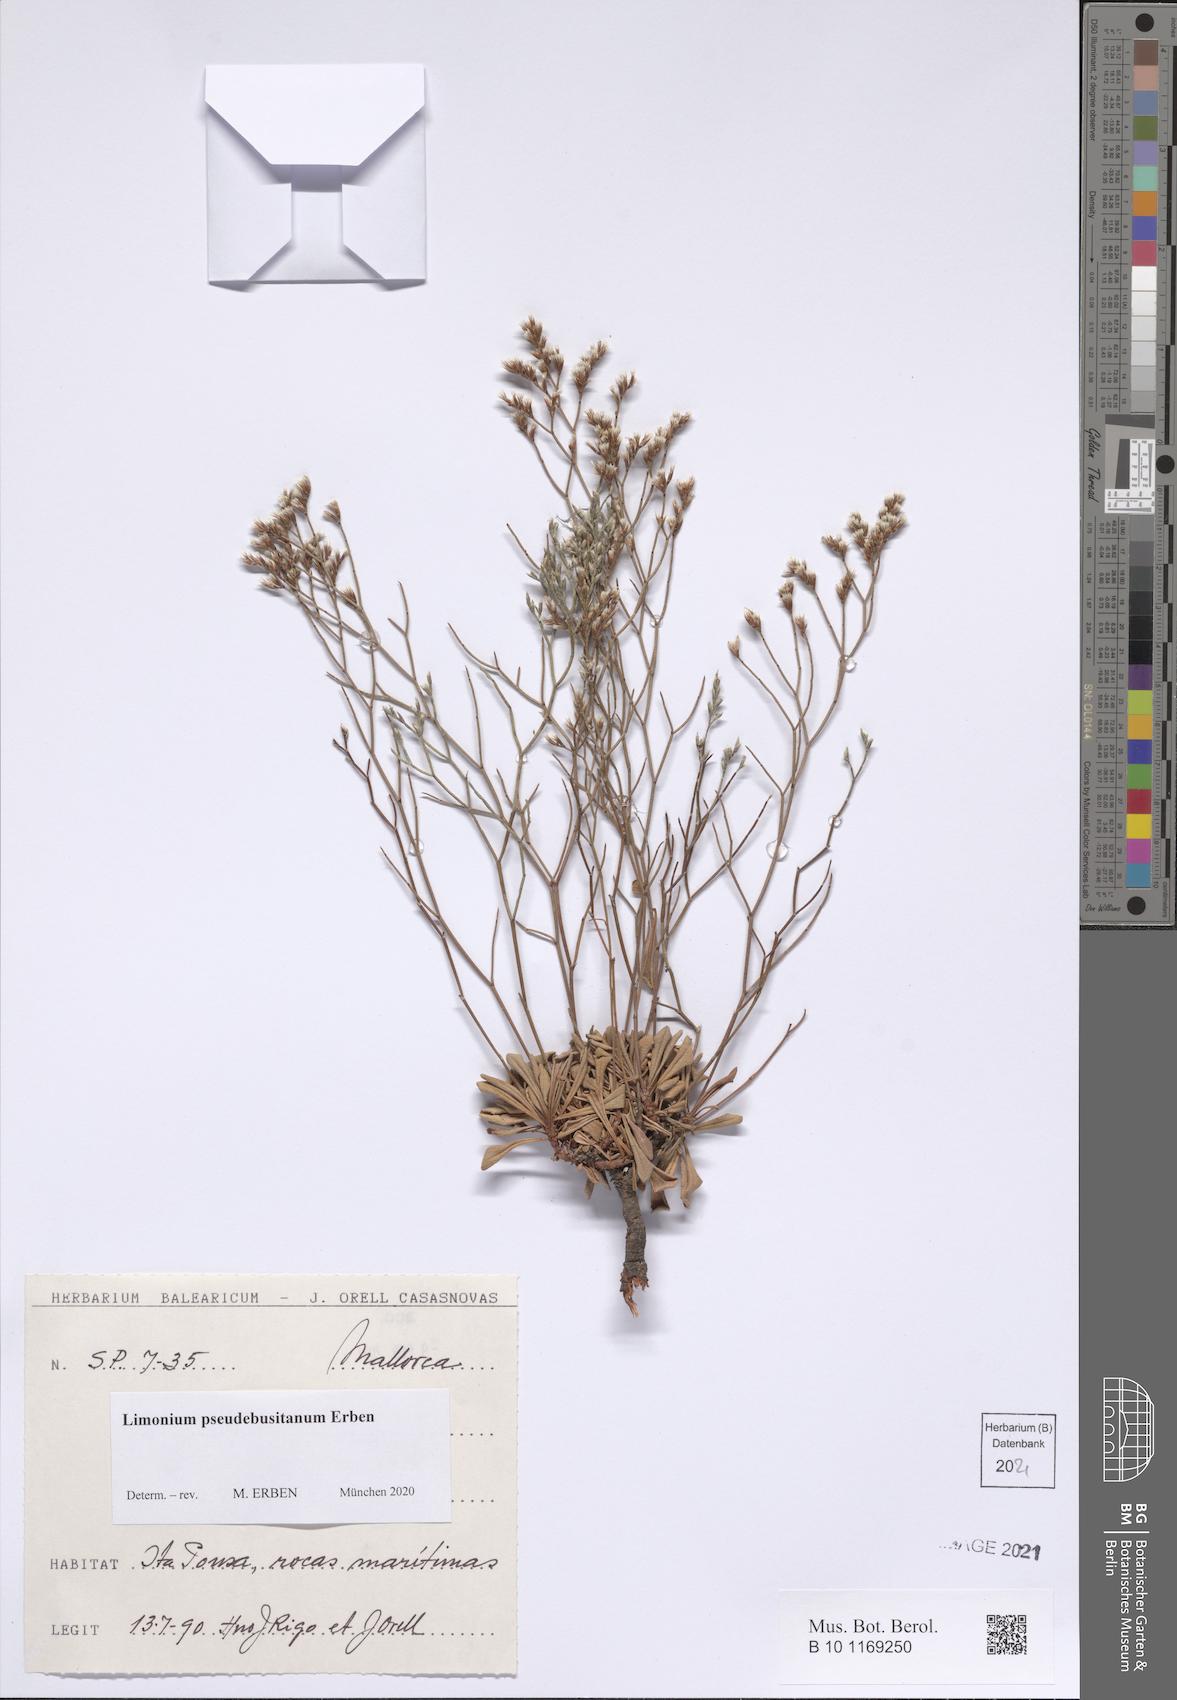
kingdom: Plantae
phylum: Tracheophyta
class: Magnoliopsida
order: Caryophyllales
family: Plumbaginaceae
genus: Limonium
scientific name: Limonium pseudebusitanum
